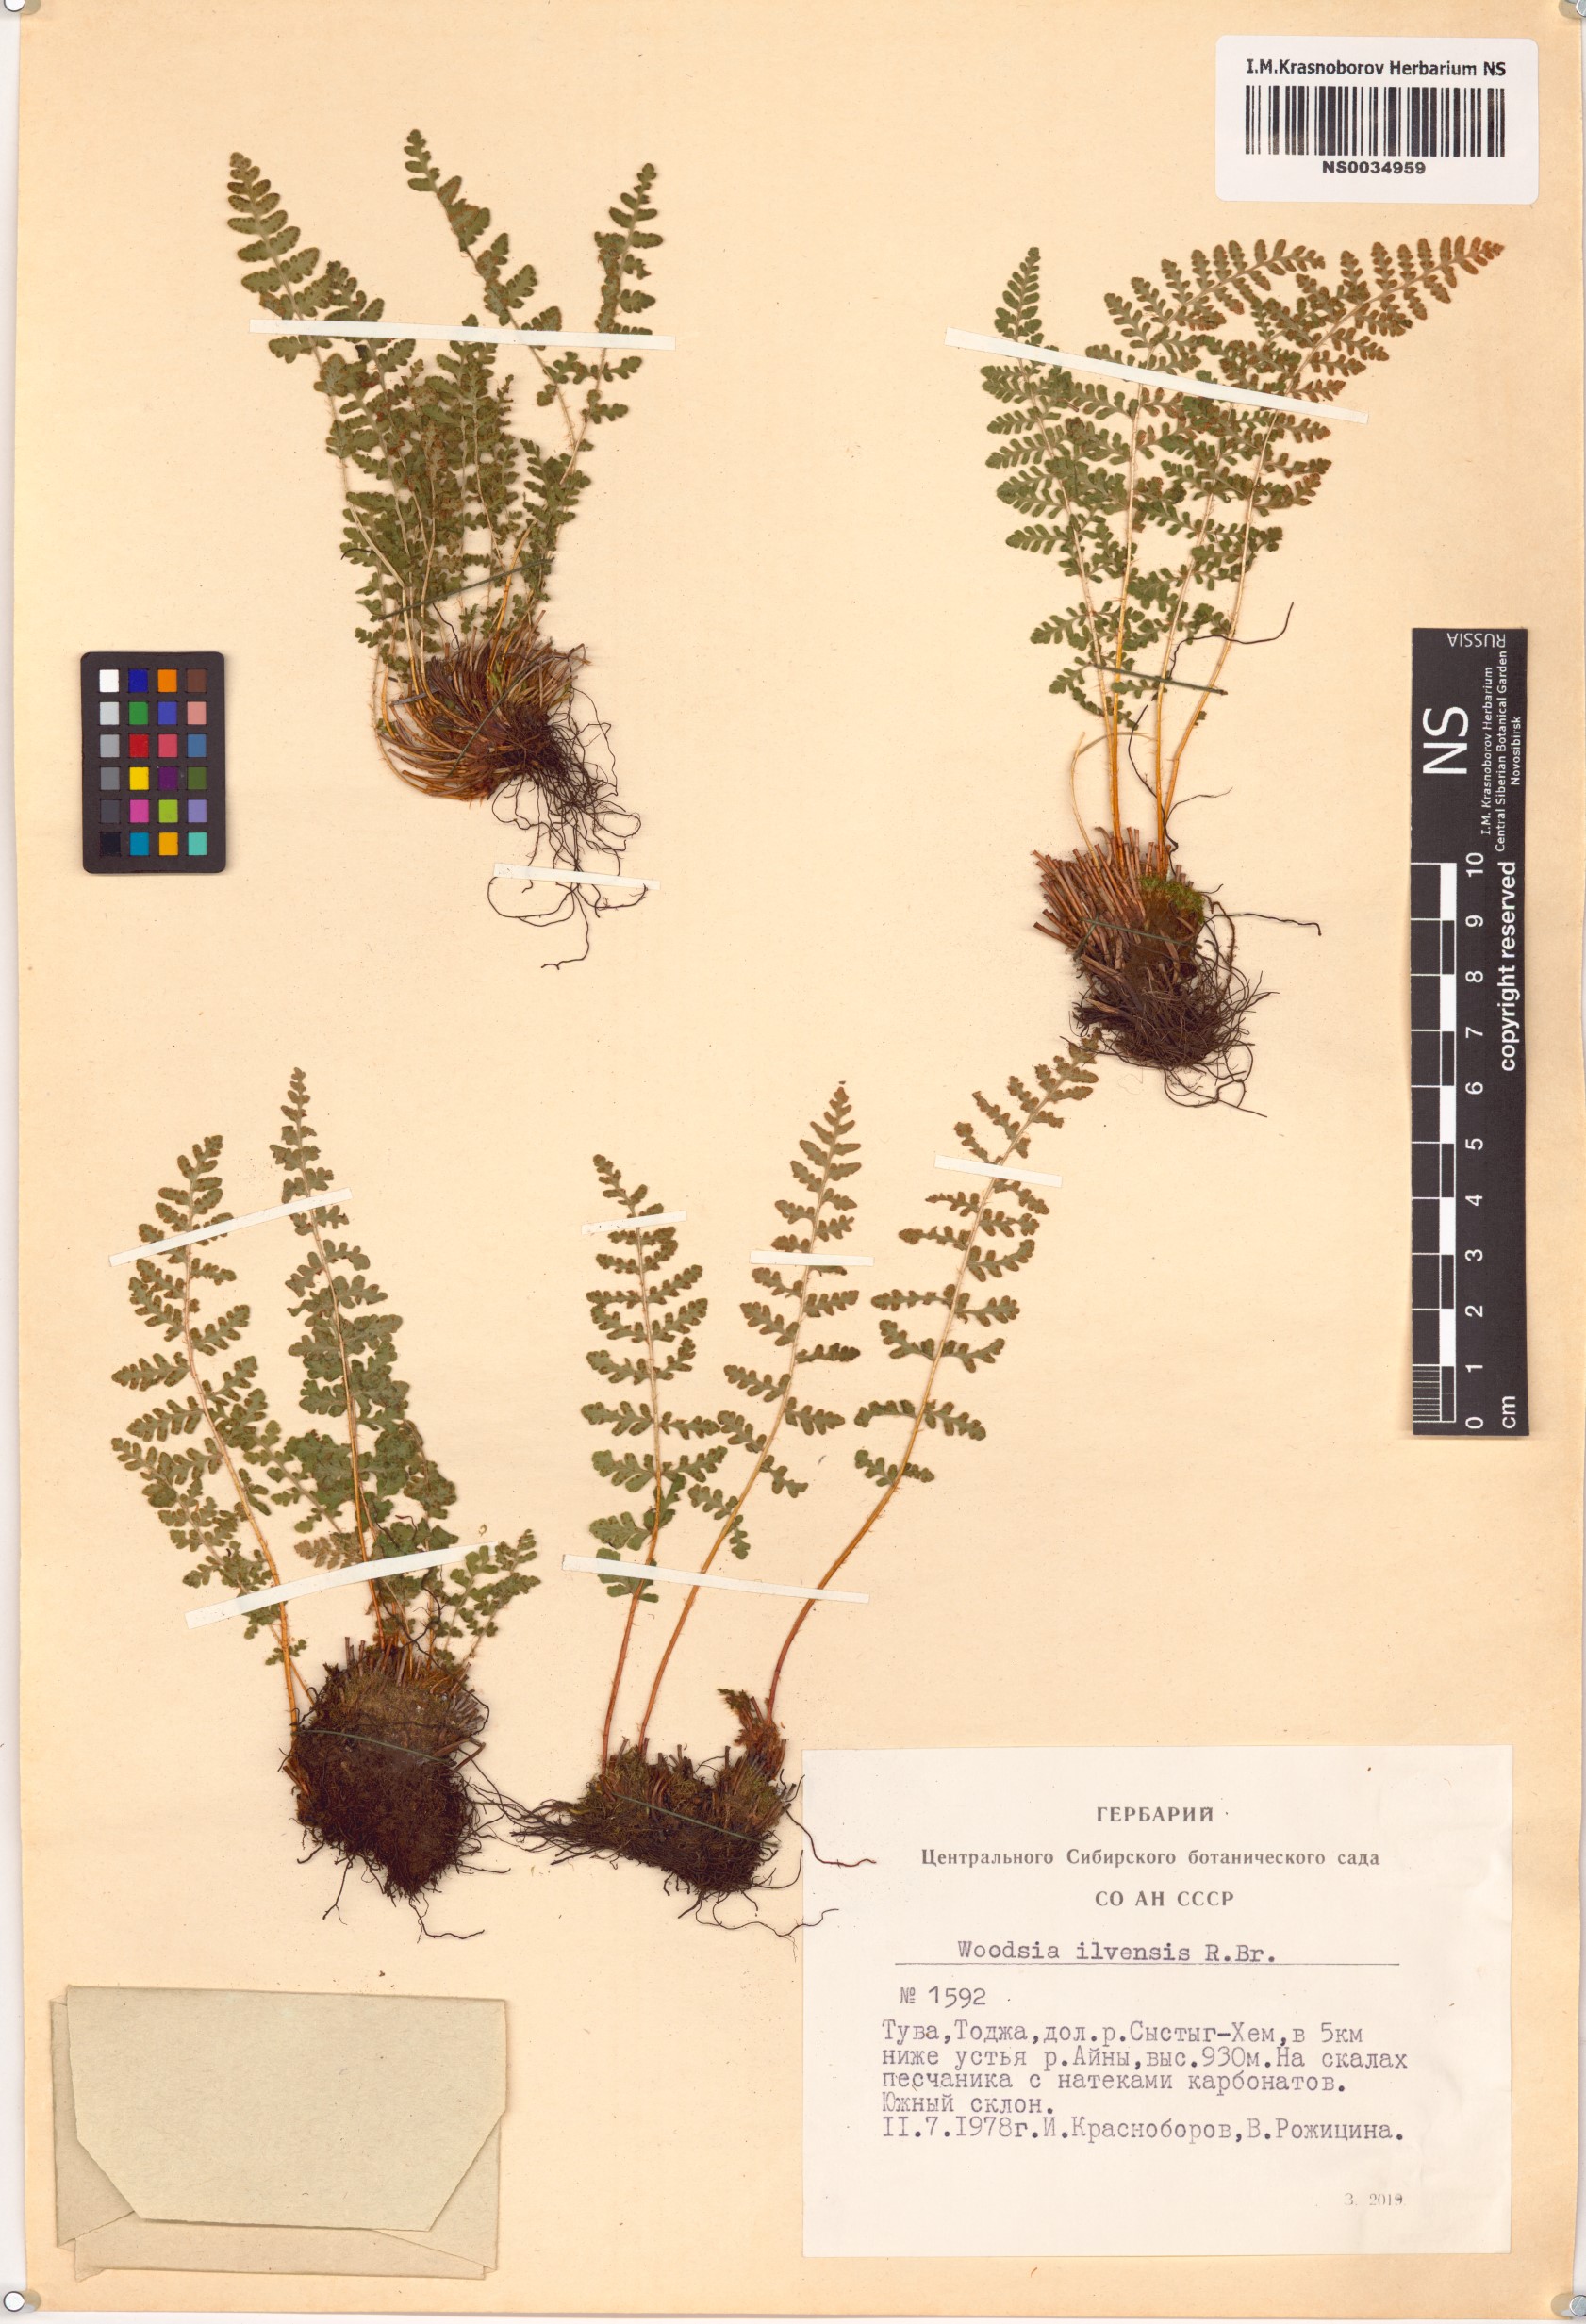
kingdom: Plantae
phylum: Tracheophyta
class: Polypodiopsida
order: Polypodiales
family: Woodsiaceae
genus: Woodsia
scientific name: Woodsia ilvensis
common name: Fragrant woodsia
